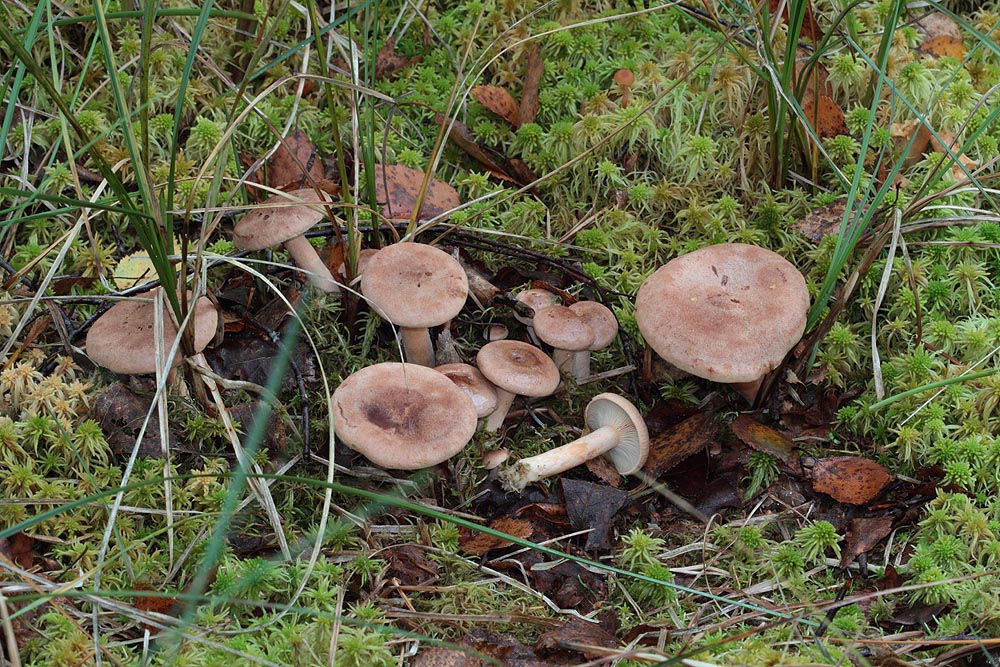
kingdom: Fungi
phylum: Basidiomycota
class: Agaricomycetes
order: Russulales
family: Russulaceae
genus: Lactarius
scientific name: Lactarius helvus
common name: mose-mælkehat
